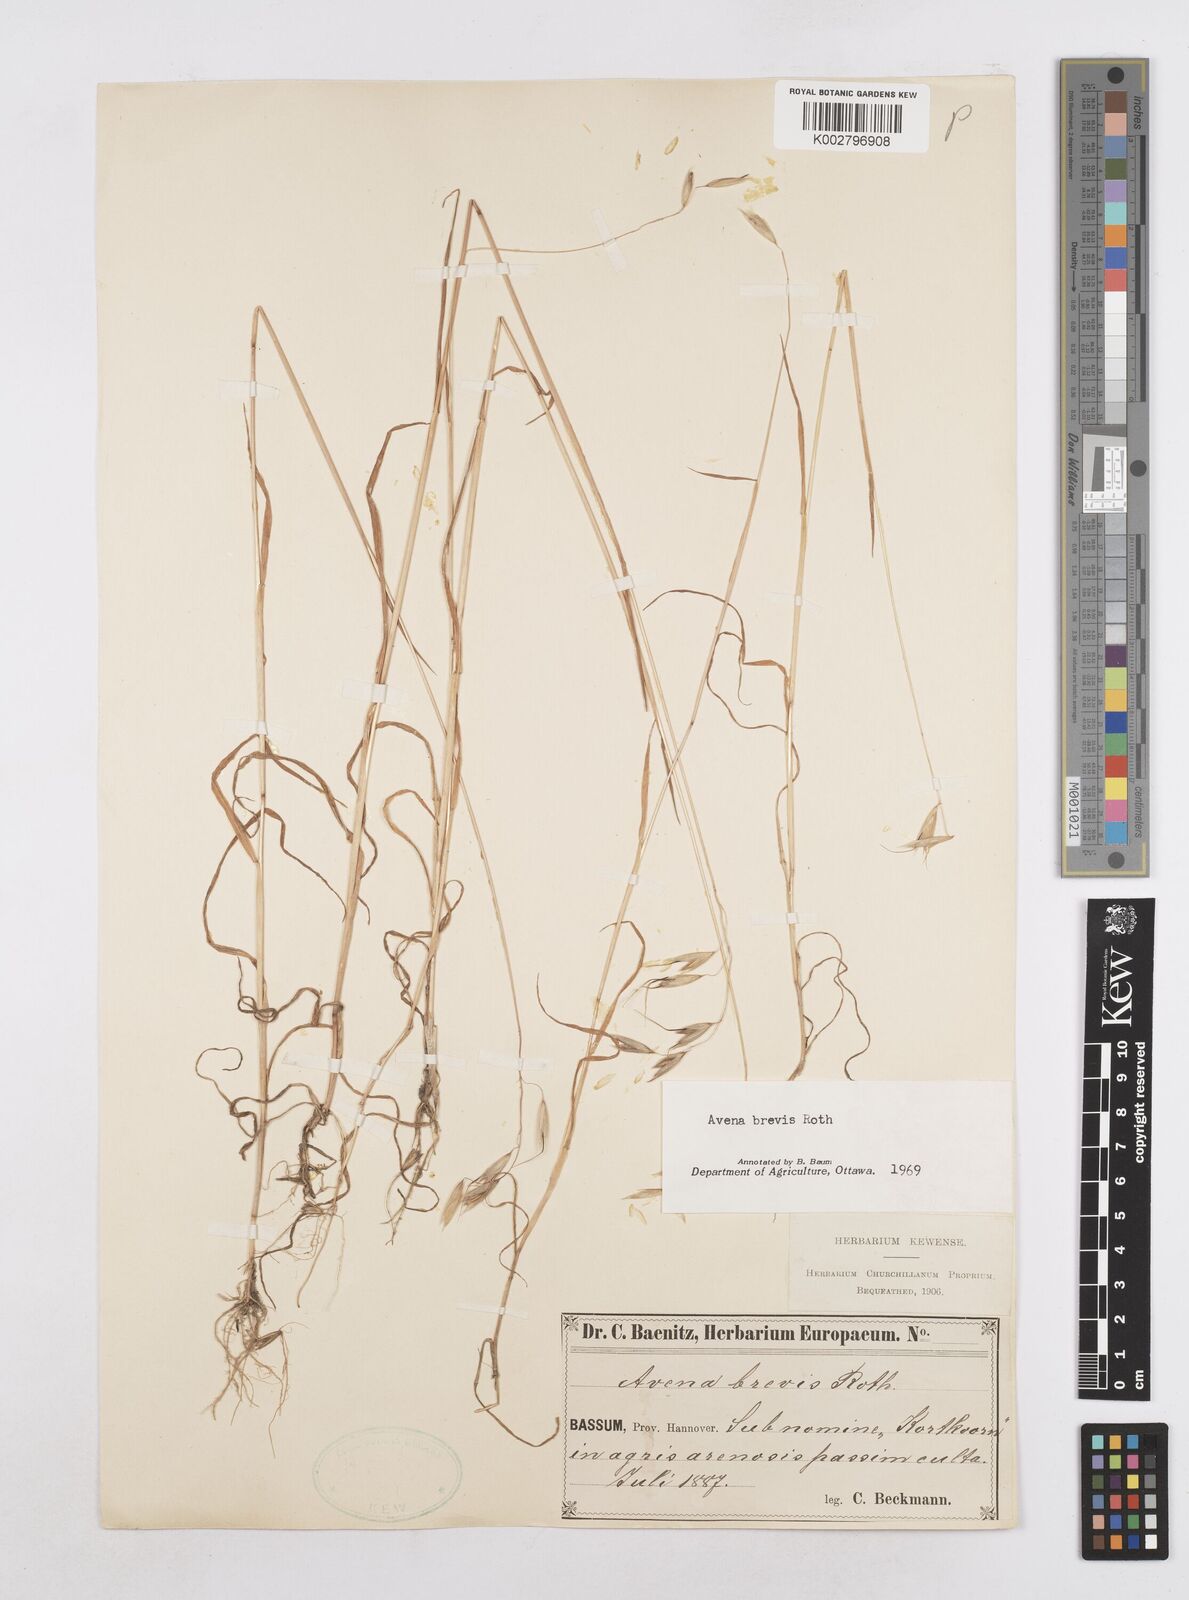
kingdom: Plantae
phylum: Tracheophyta
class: Liliopsida
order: Poales
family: Poaceae
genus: Avena
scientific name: Avena brevis
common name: Short oat
